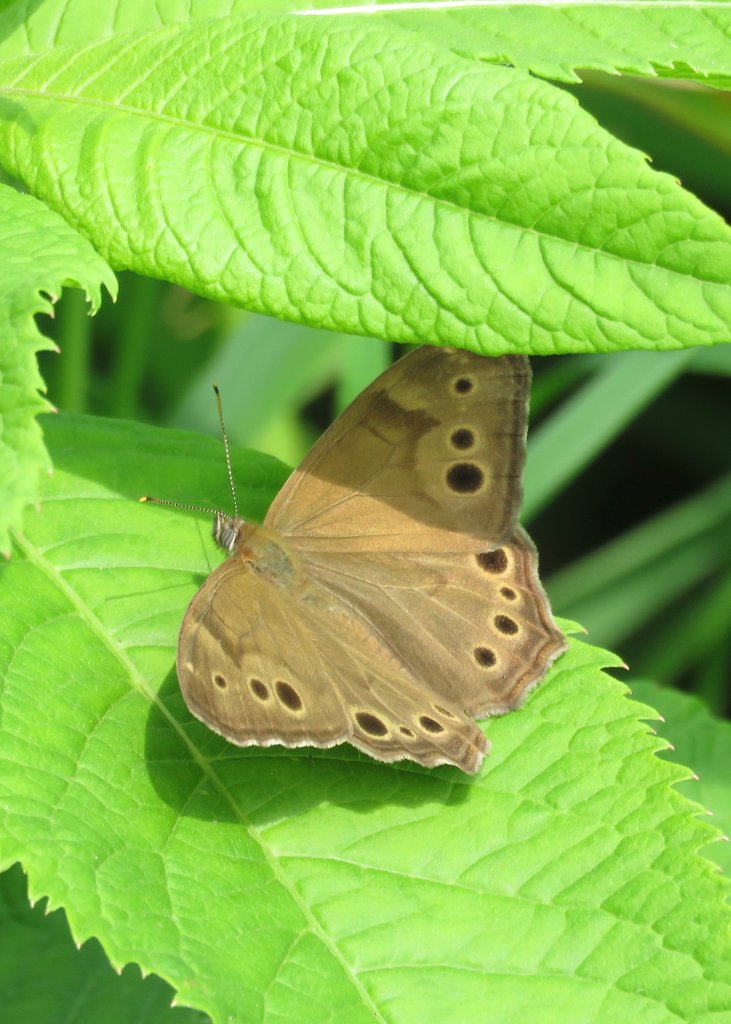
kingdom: Animalia
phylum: Arthropoda
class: Insecta
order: Lepidoptera
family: Nymphalidae
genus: Lethe
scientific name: Lethe anthedon
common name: Northern Pearly-Eye
